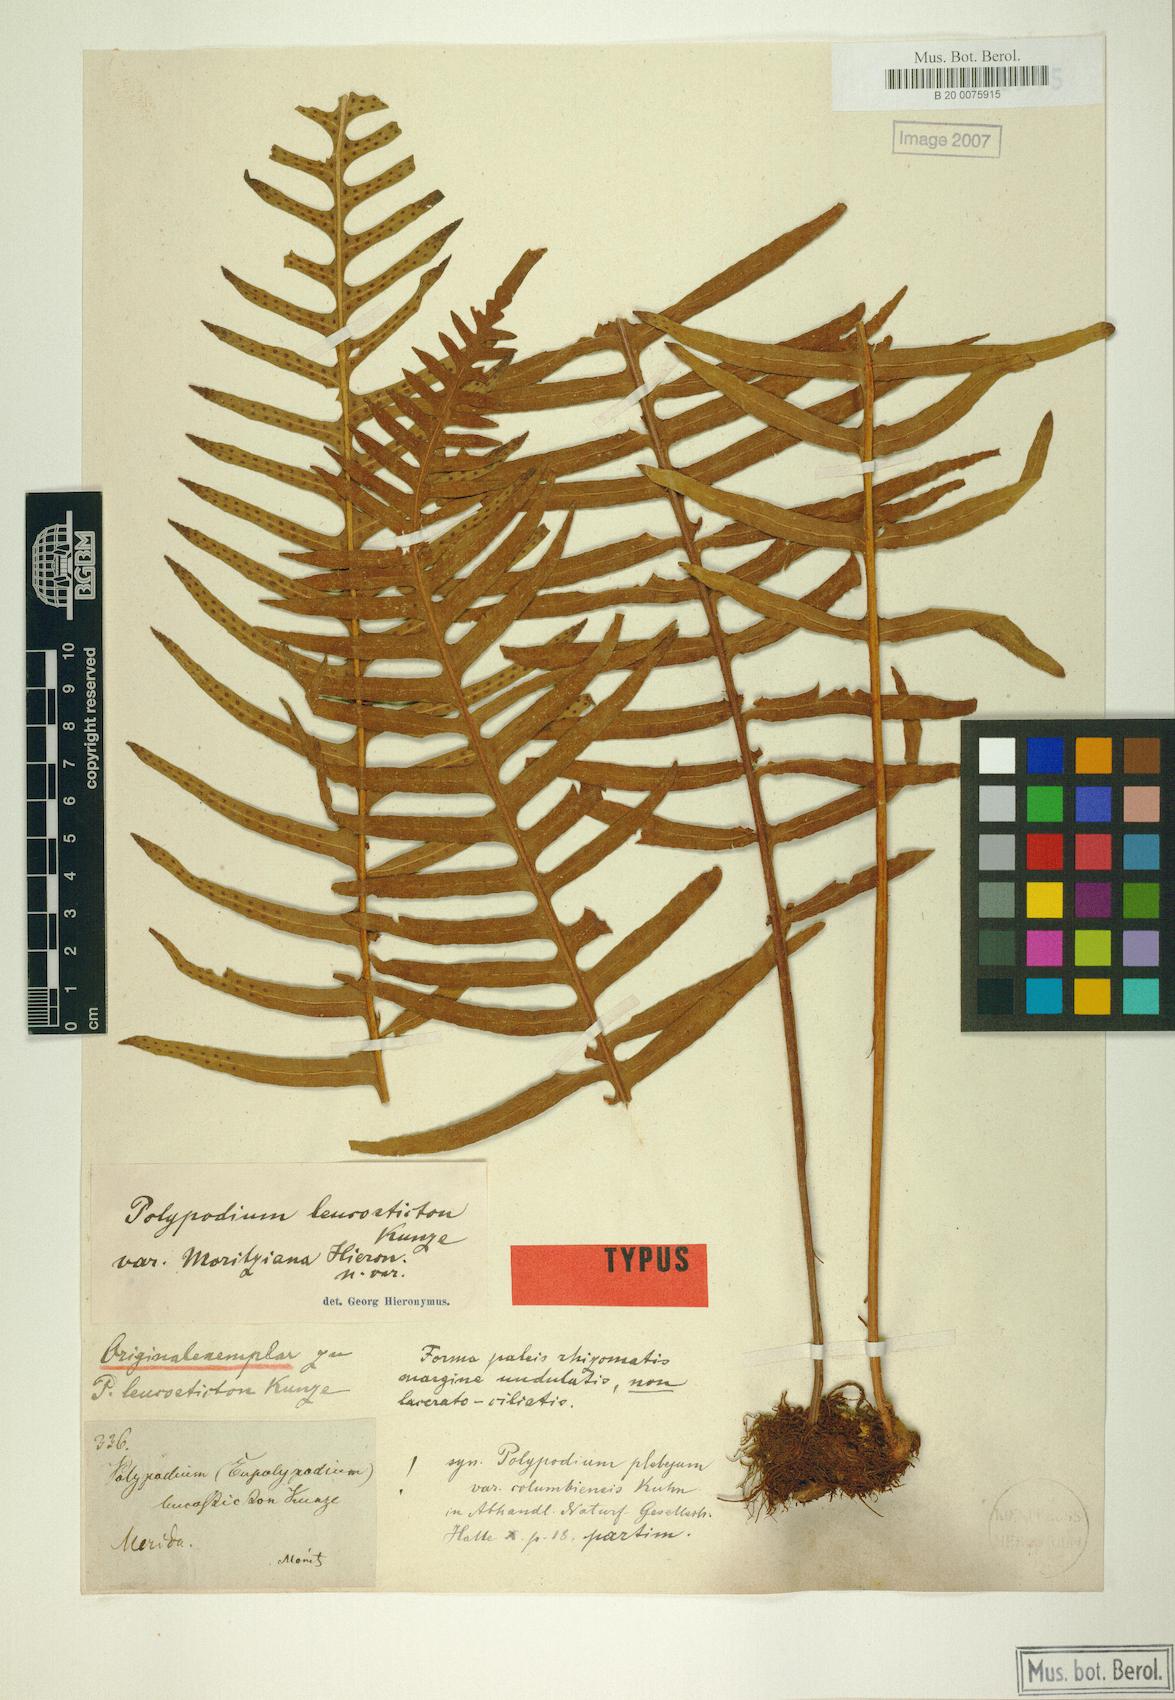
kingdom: Plantae
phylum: Tracheophyta
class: Polypodiopsida
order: Polypodiales
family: Polypodiaceae
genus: Pleopeltis
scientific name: Pleopeltis remota
